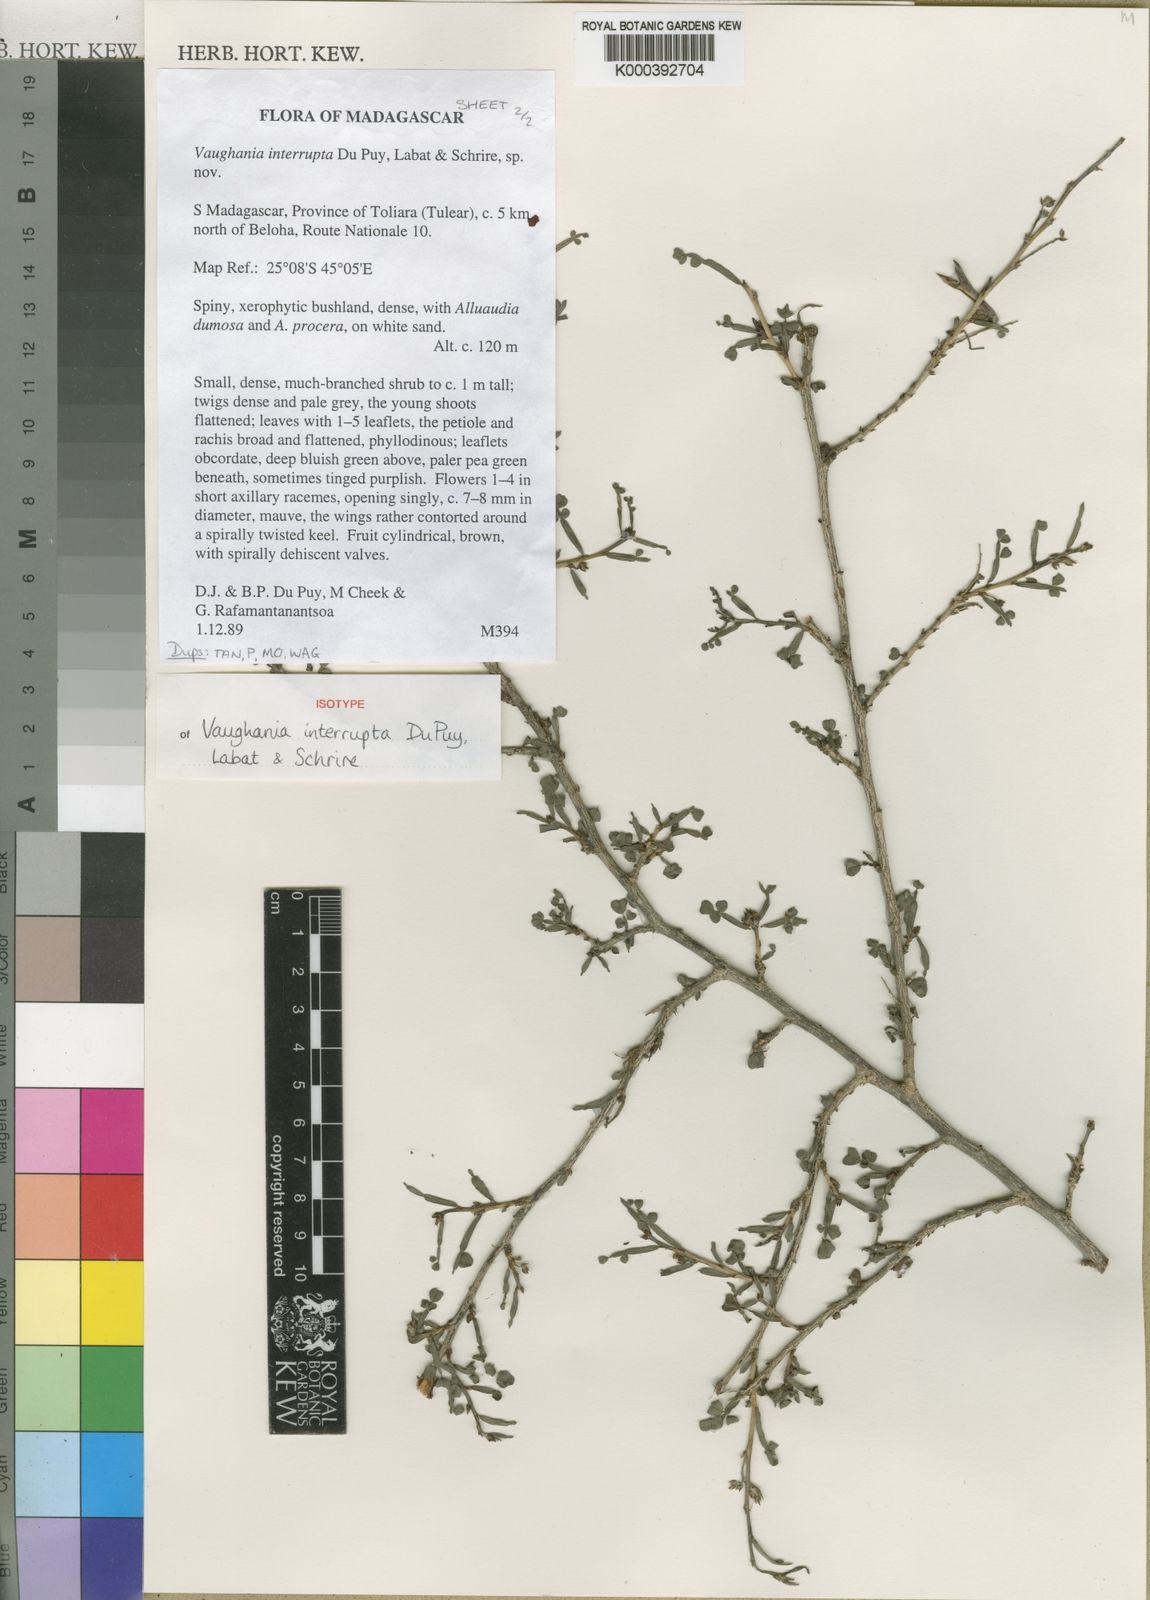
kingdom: Plantae
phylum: Tracheophyta
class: Magnoliopsida
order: Fabales
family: Fabaceae
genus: Indigofera
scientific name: Indigofera interrupta
